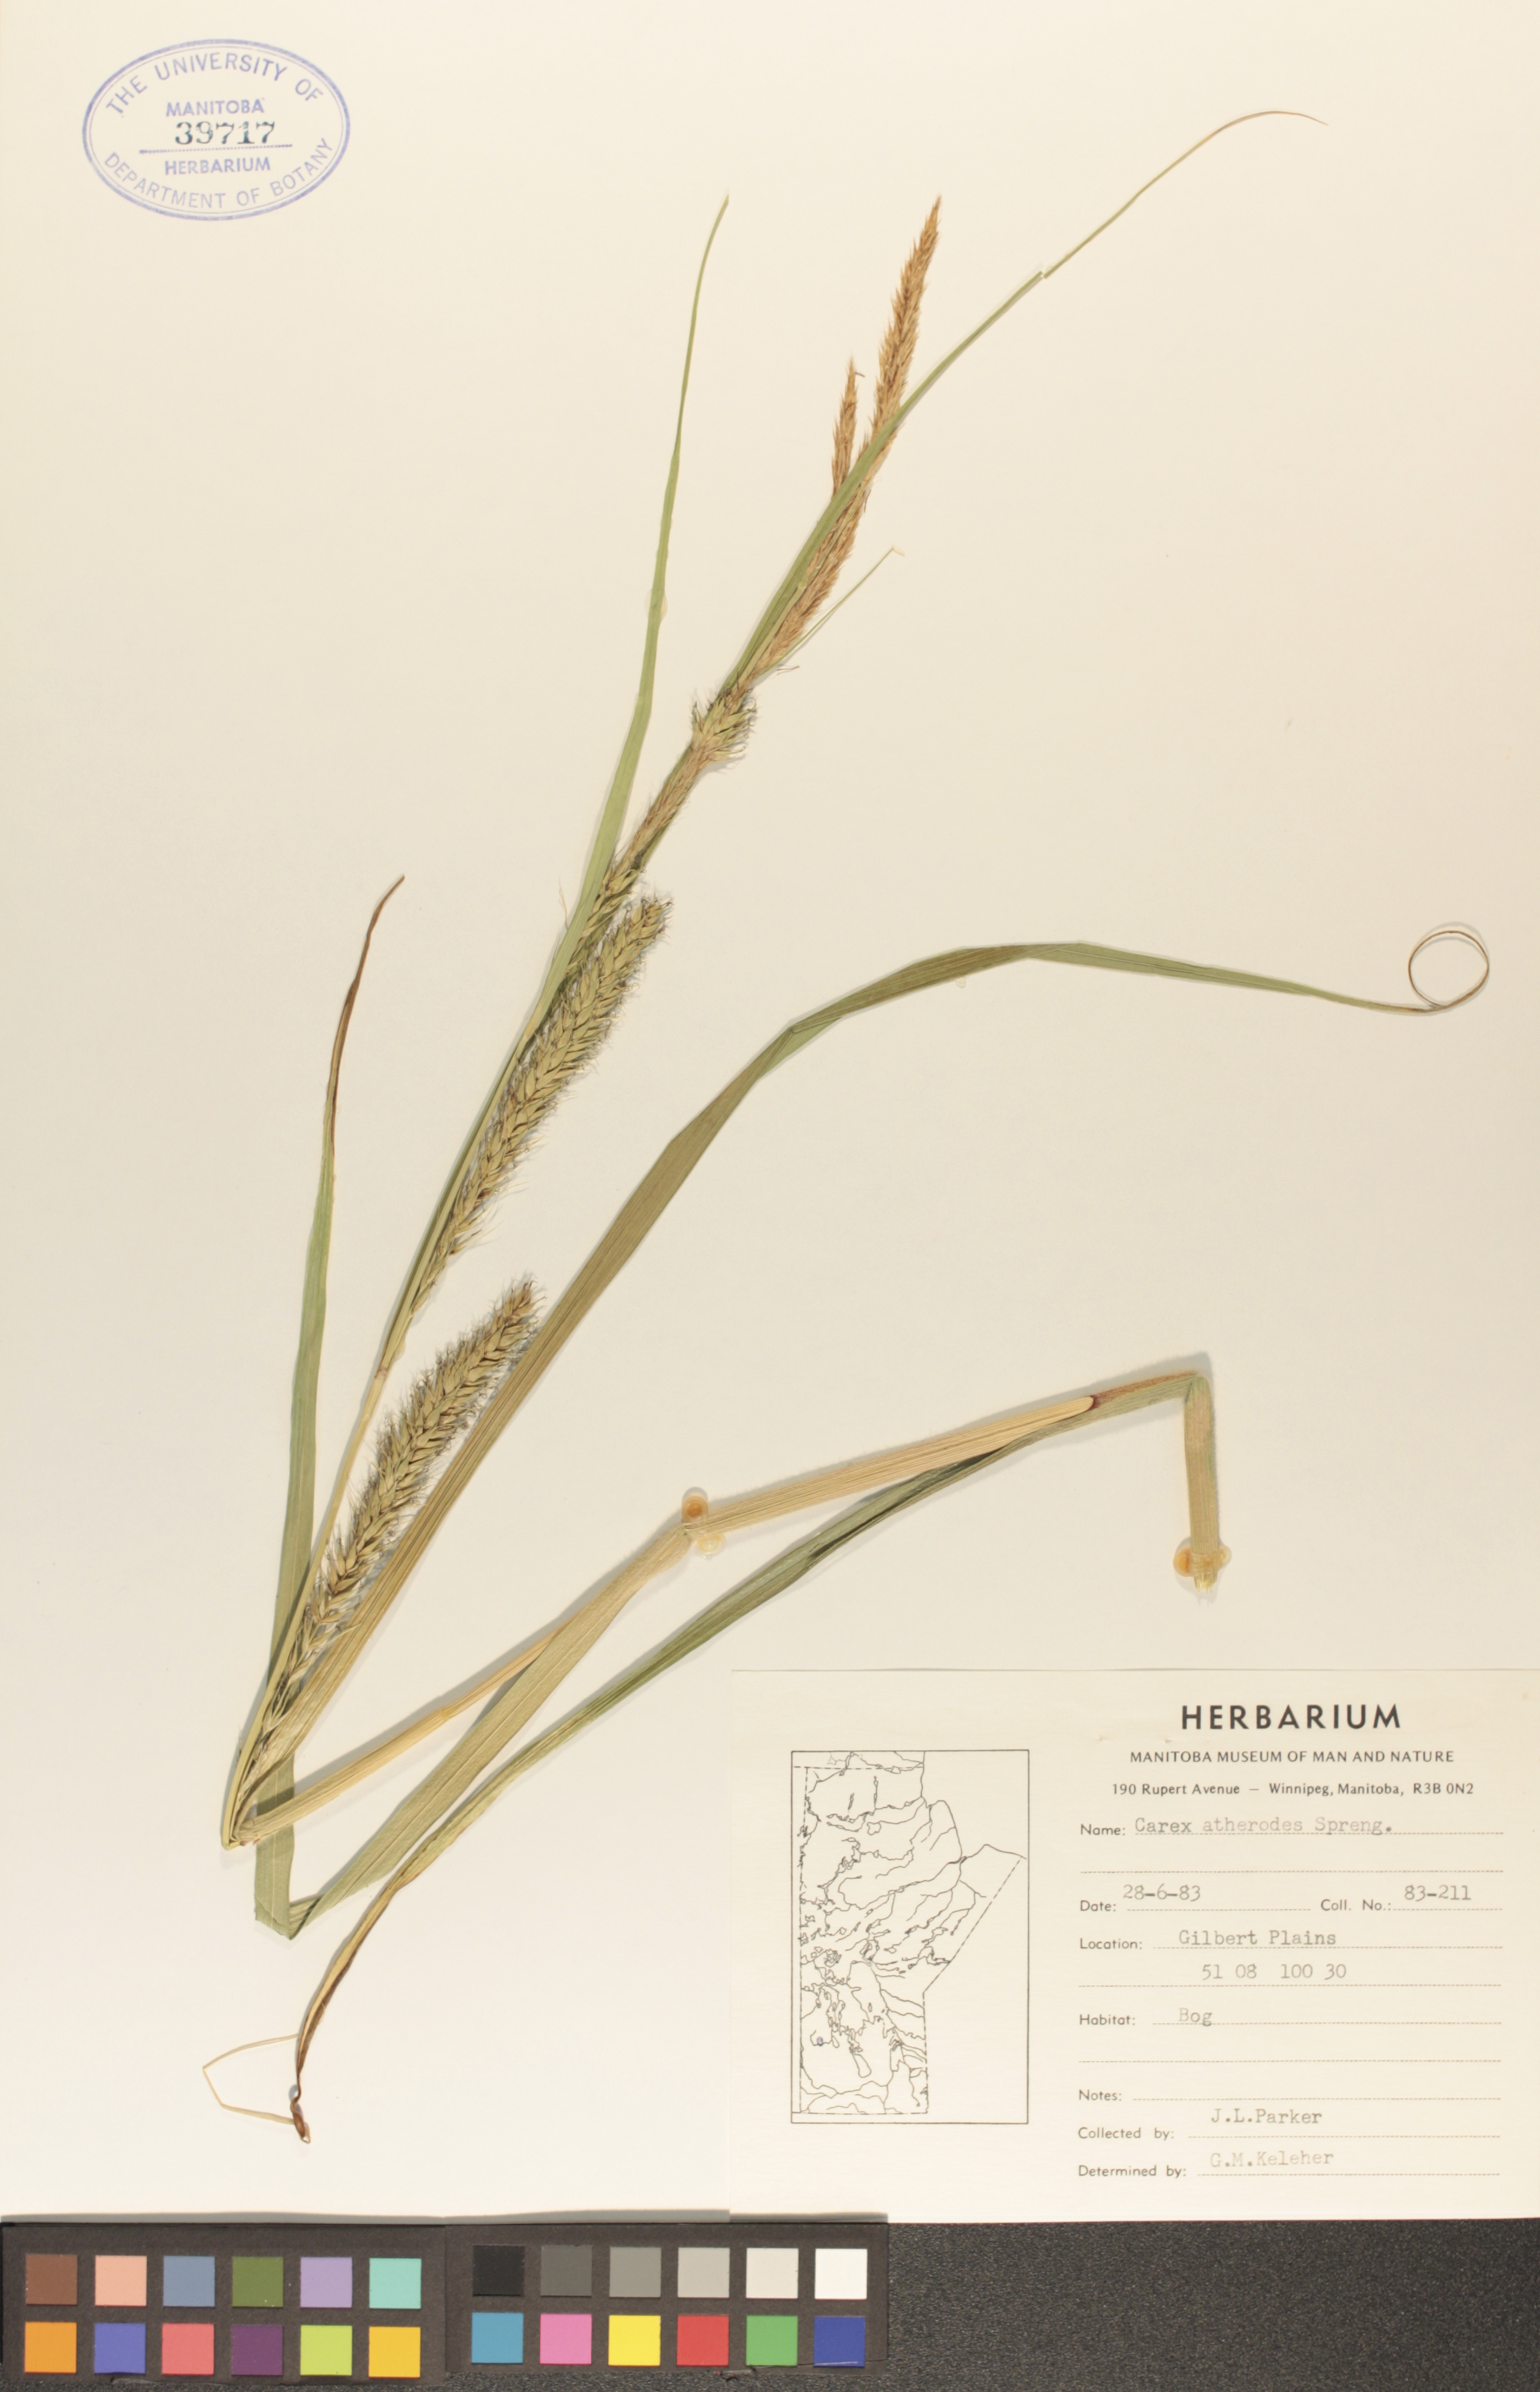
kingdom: Plantae
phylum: Tracheophyta
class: Liliopsida
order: Poales
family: Cyperaceae
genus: Carex
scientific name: Carex atherodes
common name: Wheat sedge
